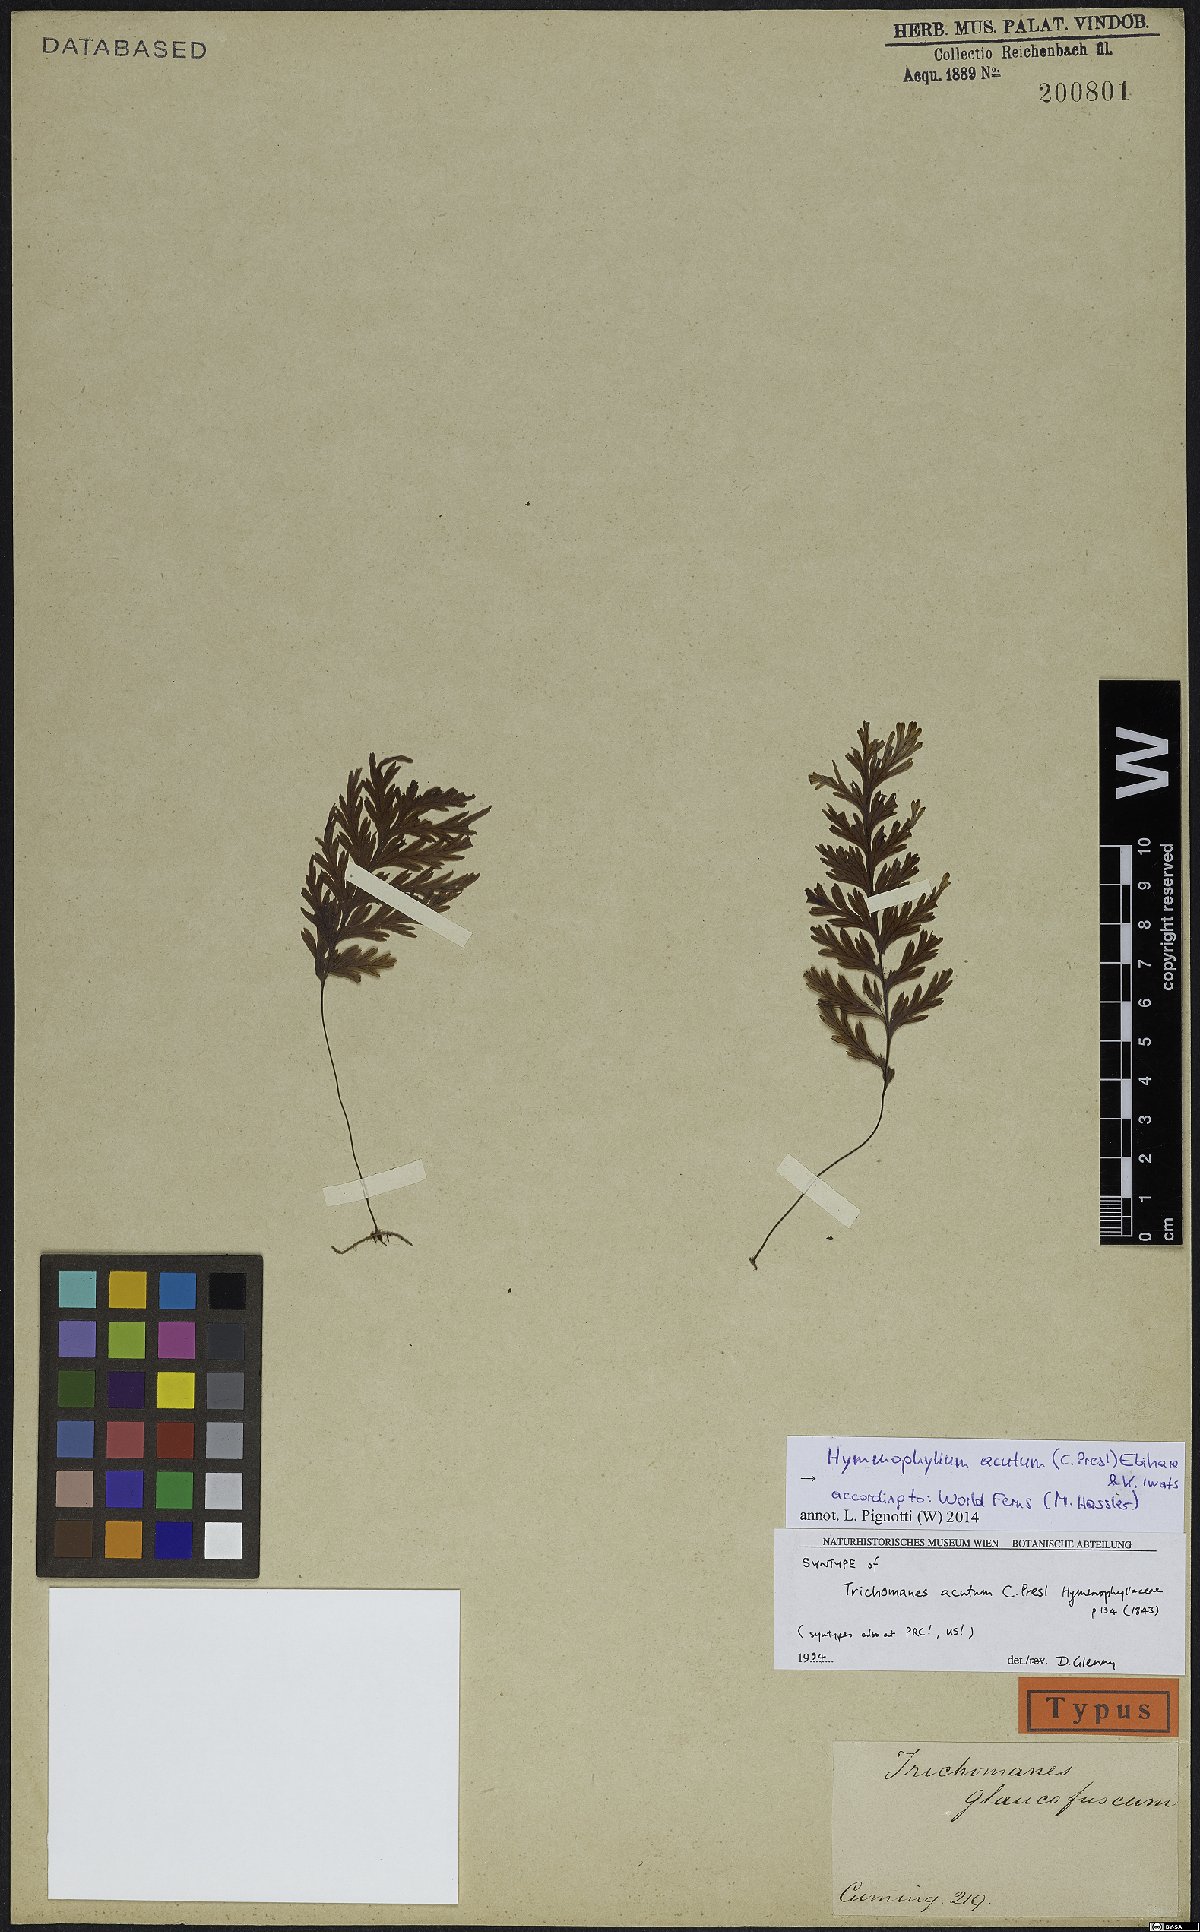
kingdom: Plantae
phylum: Tracheophyta
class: Polypodiopsida
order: Hymenophyllales
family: Hymenophyllaceae
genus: Hymenophyllum
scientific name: Hymenophyllum acutum
